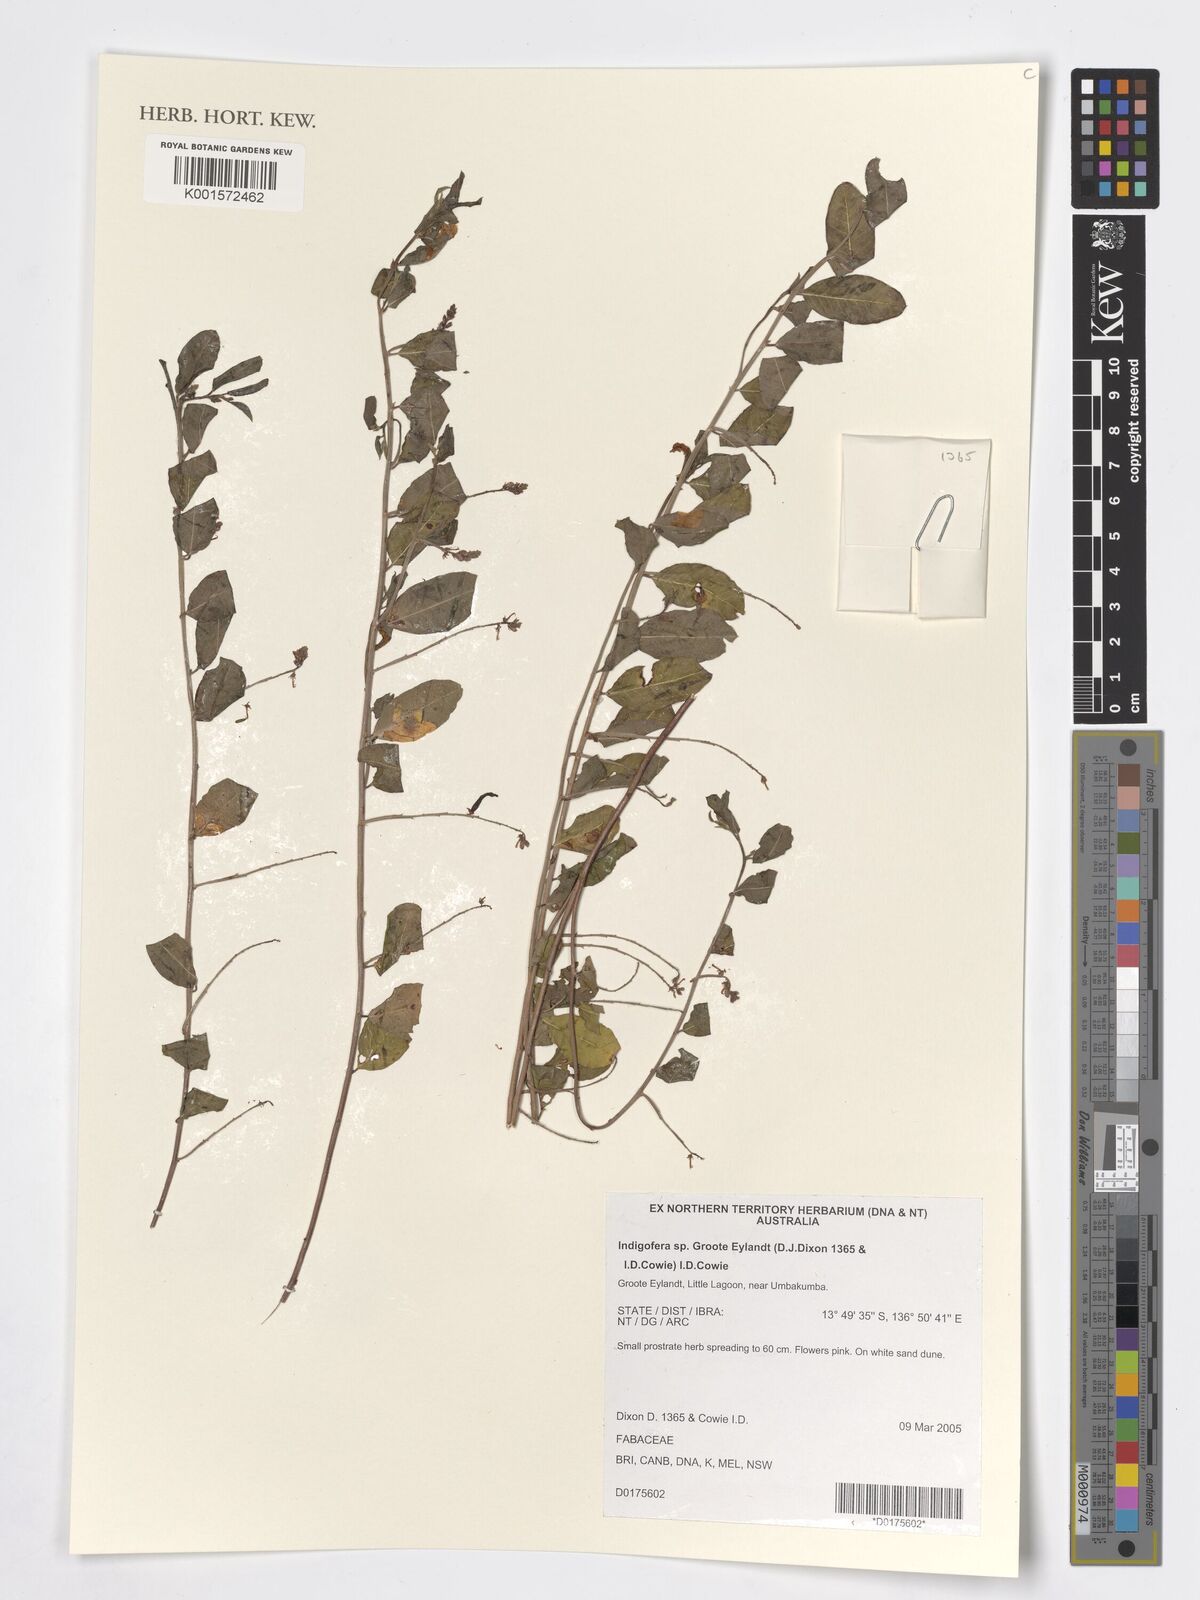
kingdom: Plantae
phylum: Tracheophyta
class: Magnoliopsida
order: Fabales
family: Fabaceae
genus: Indigofera
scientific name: Indigofera
